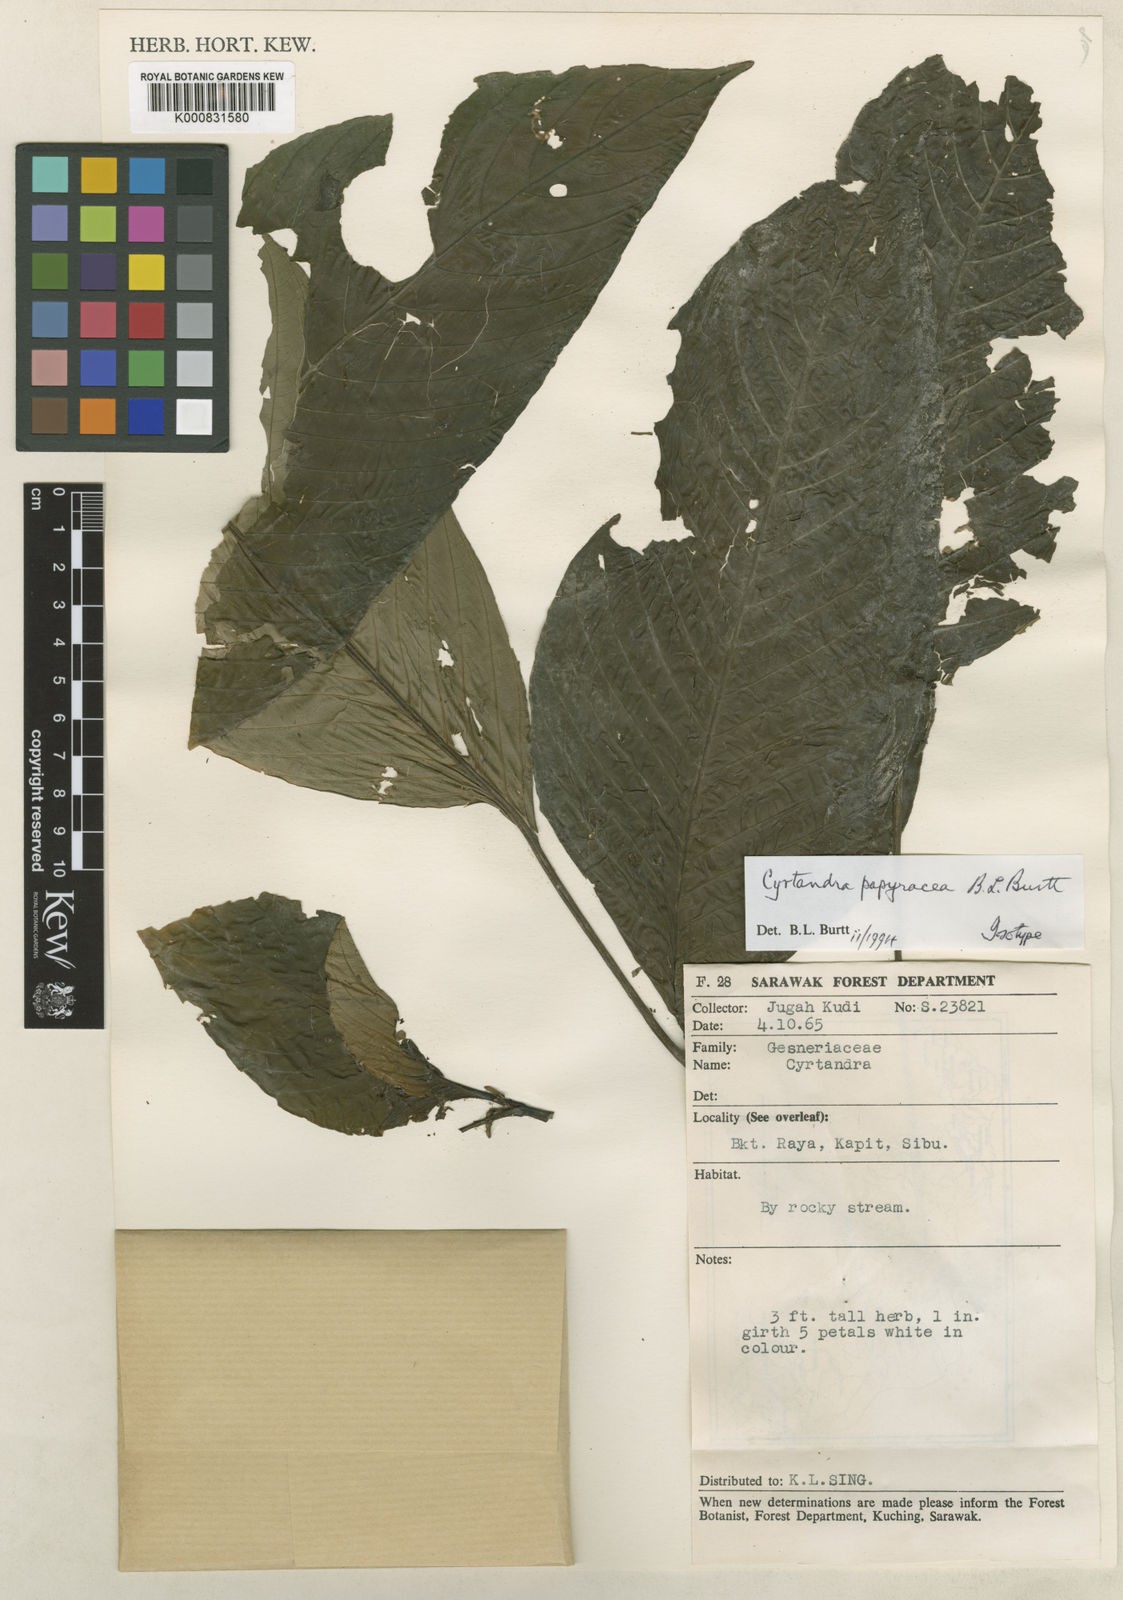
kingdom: Plantae
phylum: Tracheophyta
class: Magnoliopsida
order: Lamiales
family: Gesneriaceae
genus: Cyrtandra
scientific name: Cyrtandra papyracea
